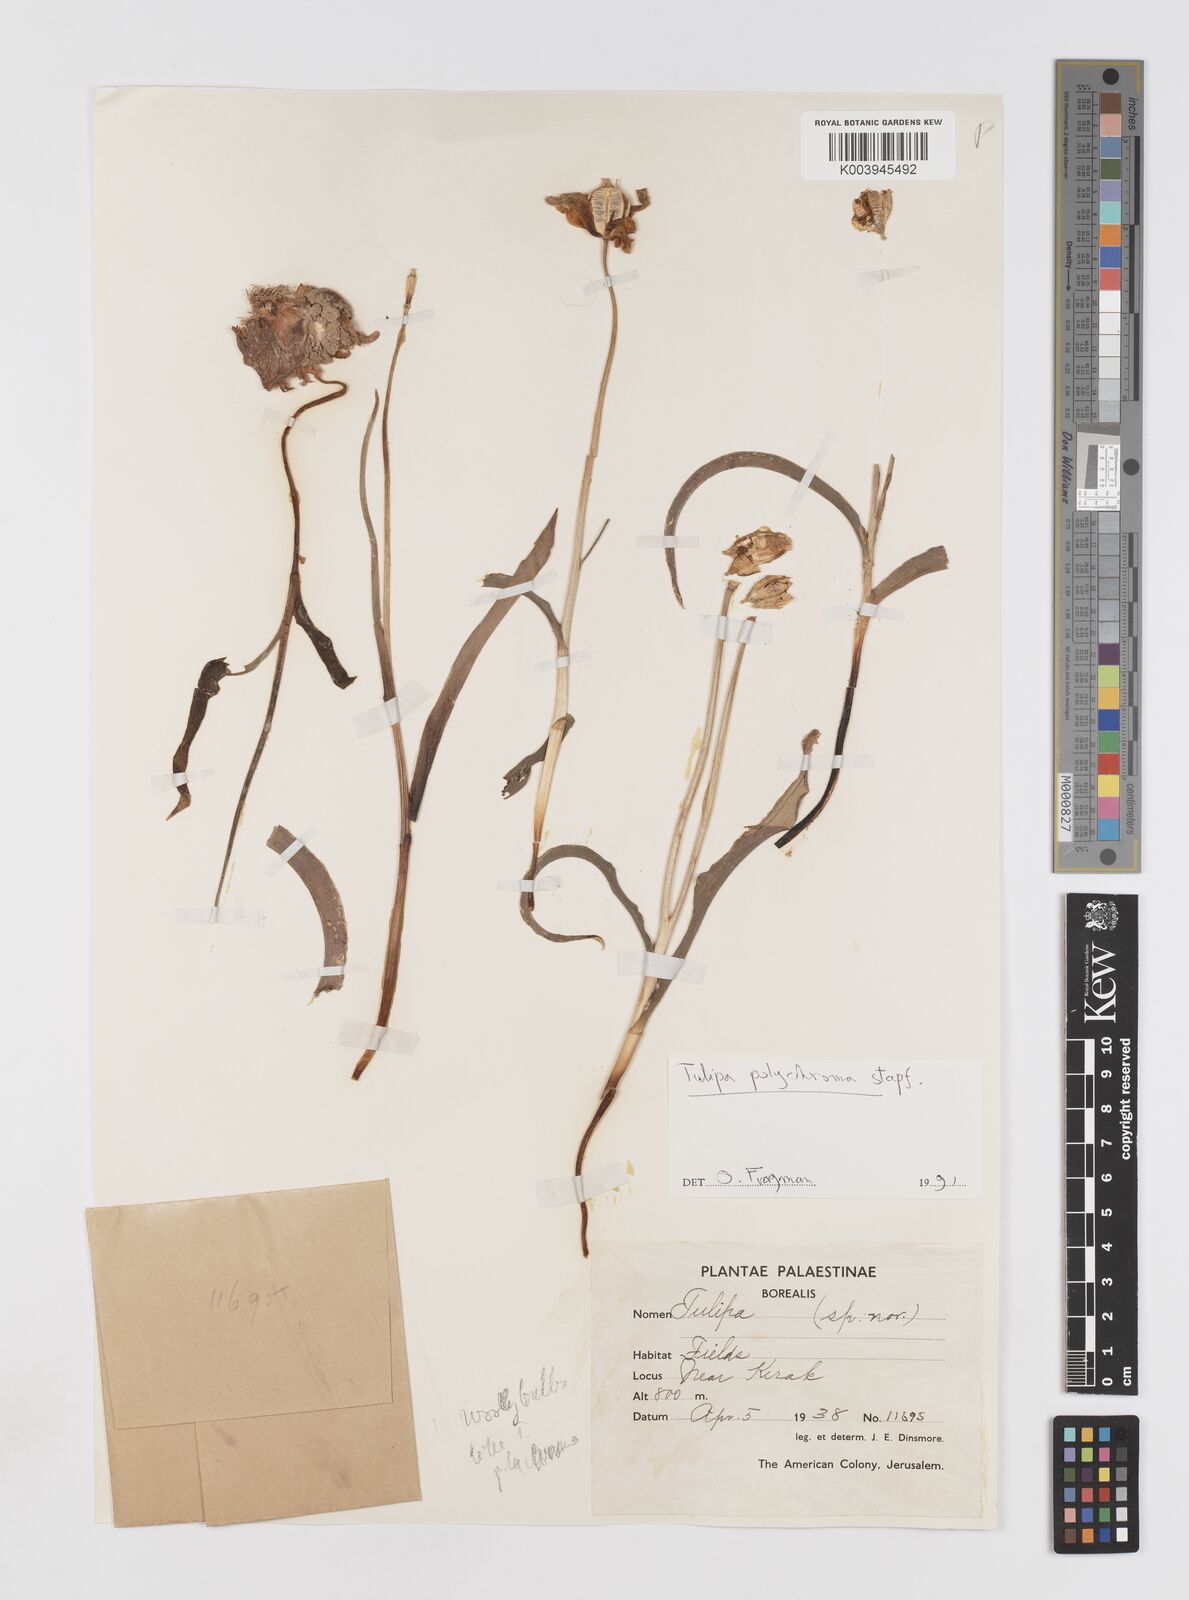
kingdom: Plantae
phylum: Tracheophyta
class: Liliopsida
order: Liliales
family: Liliaceae
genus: Tulipa
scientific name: Tulipa biflora
